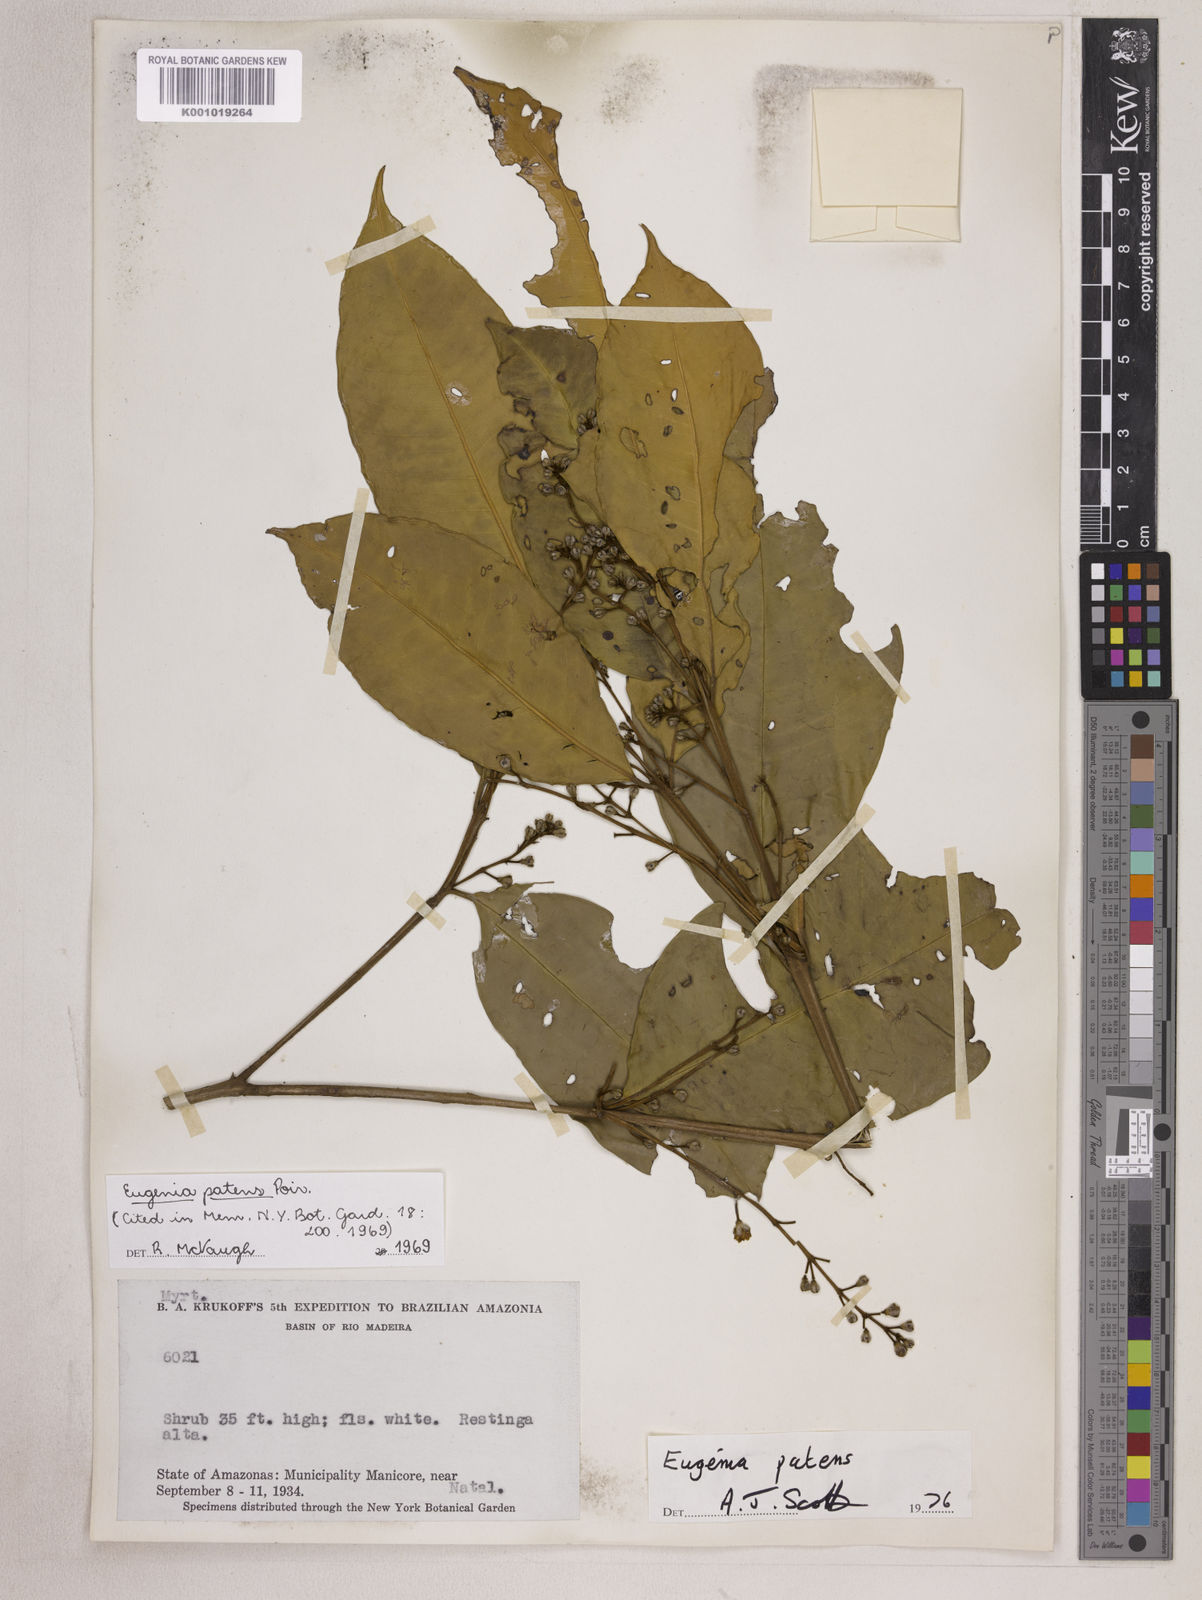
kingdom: Plantae
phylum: Tracheophyta
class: Magnoliopsida
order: Myrtales
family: Myrtaceae
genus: Eugenia
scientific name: Eugenia patens
